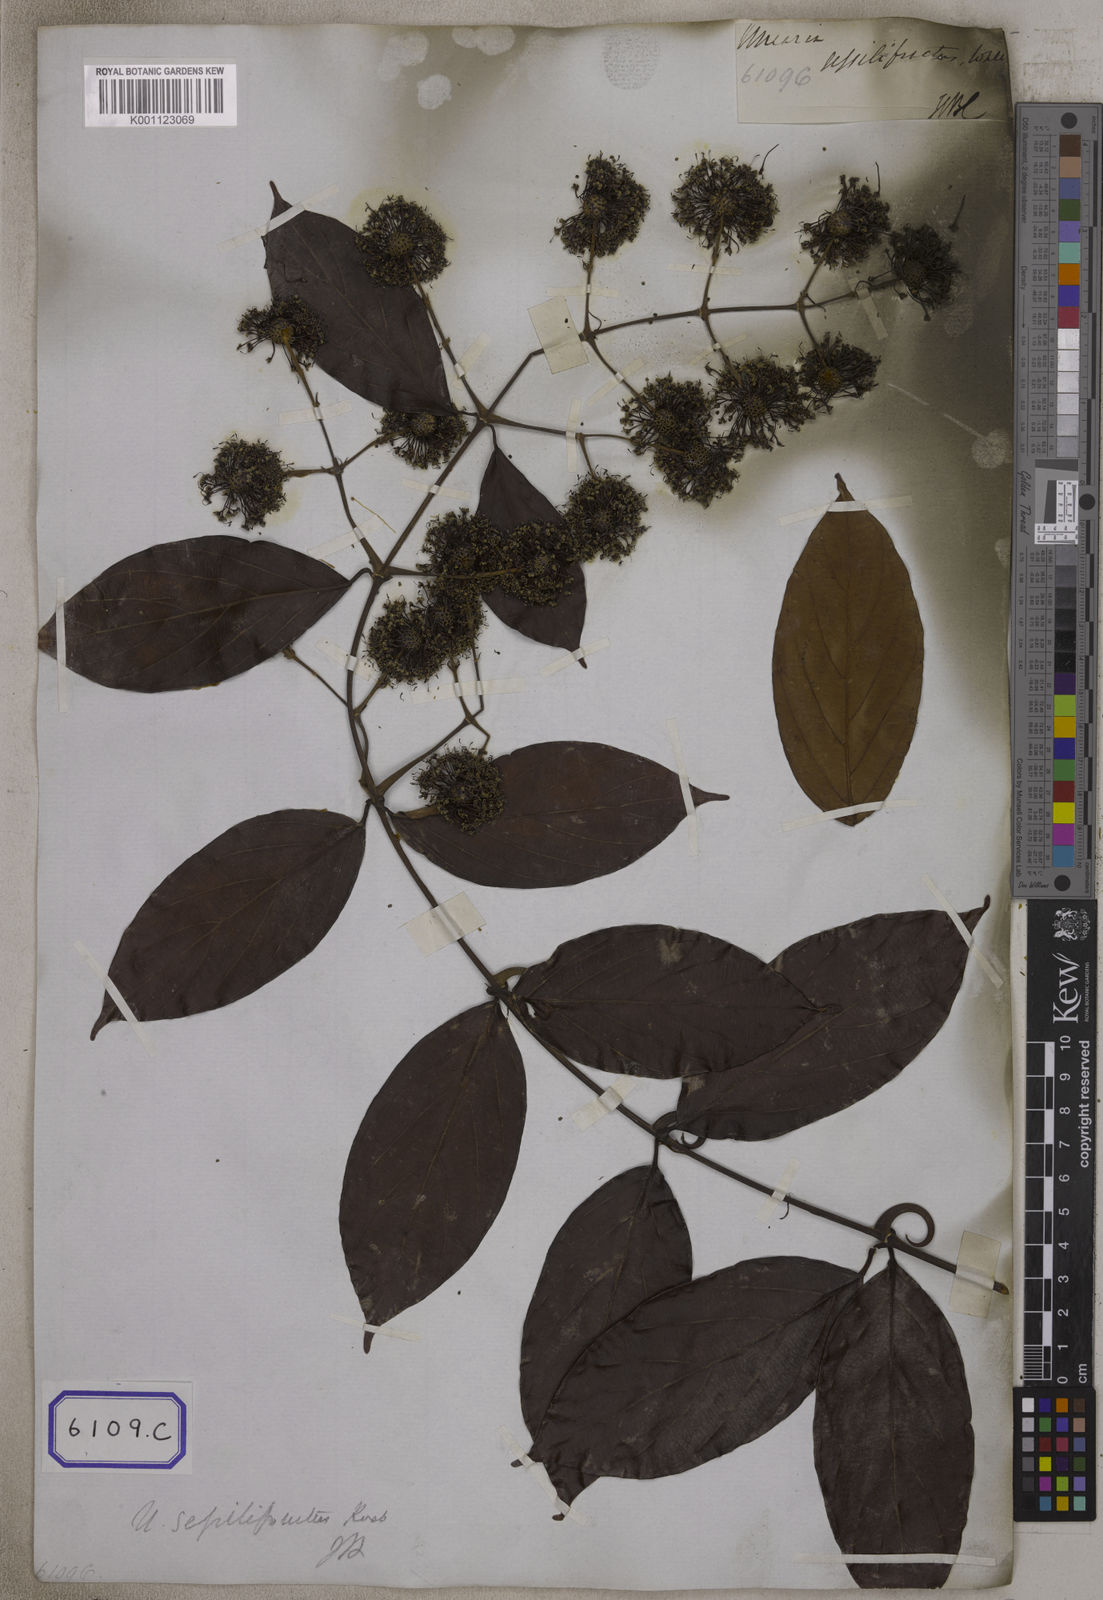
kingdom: Plantae
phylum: Tracheophyta
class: Magnoliopsida
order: Gentianales
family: Rubiaceae
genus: Uncaria
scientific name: Uncaria sessilifructus
